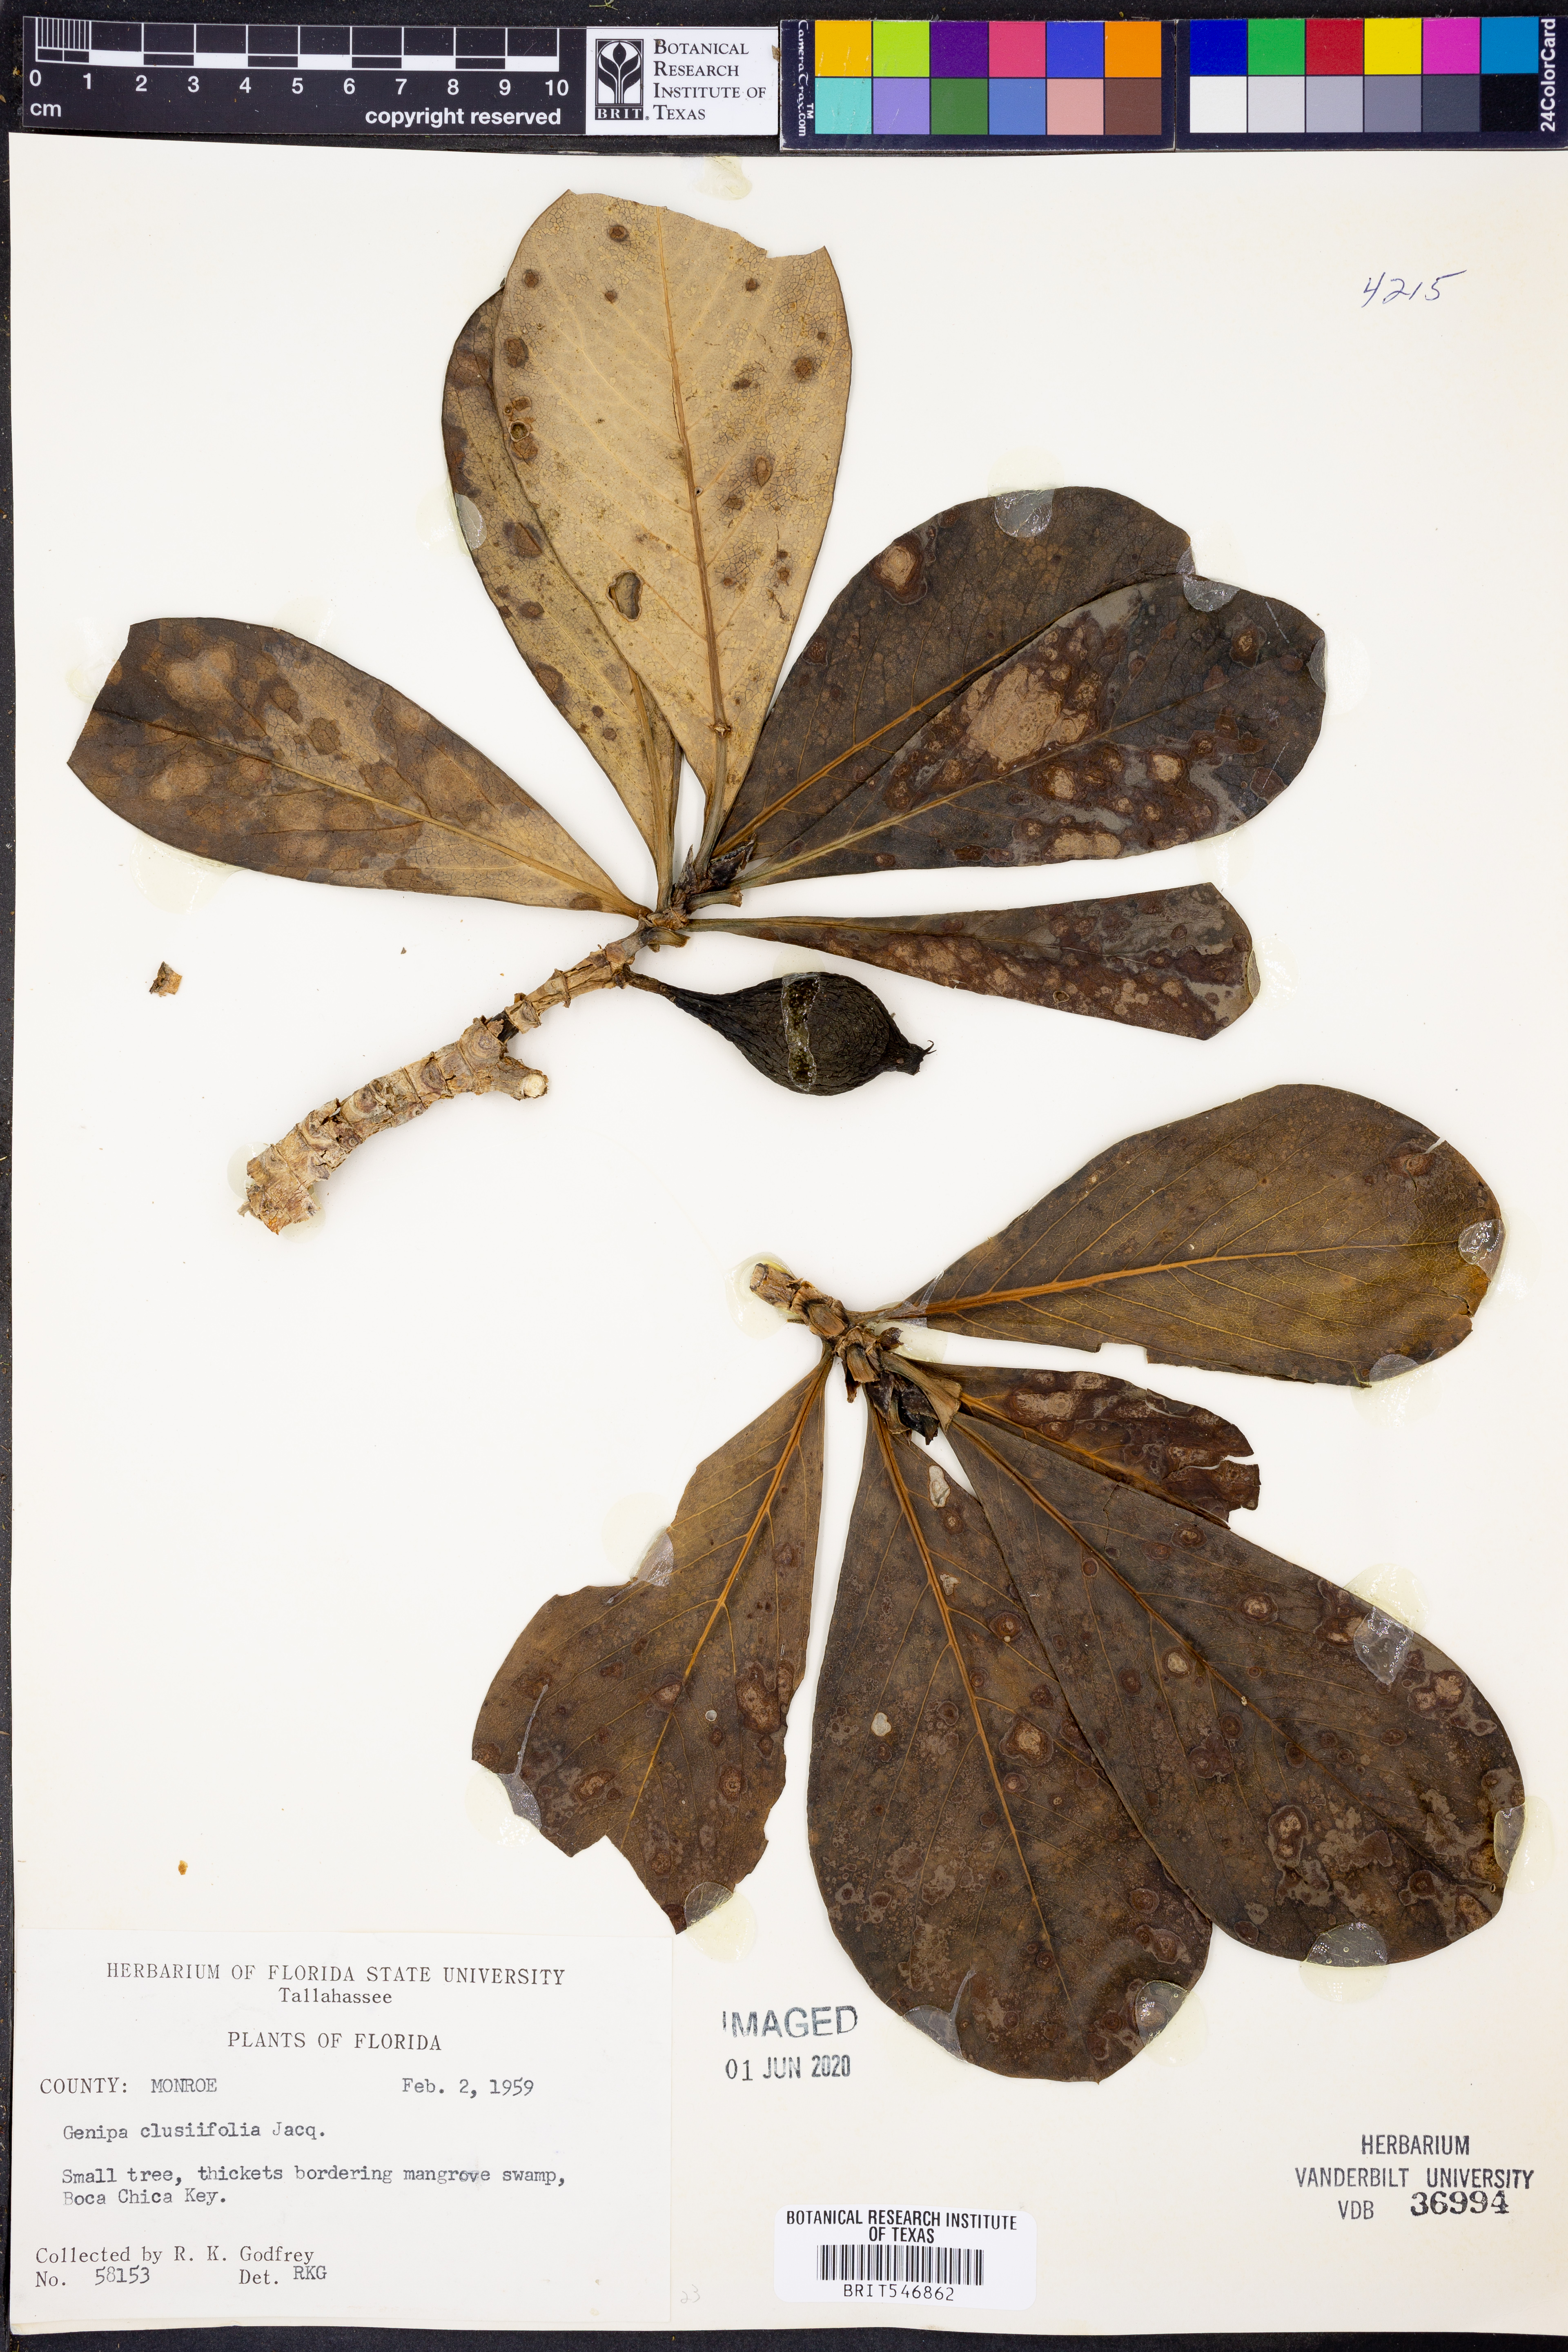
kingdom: Plantae
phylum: Tracheophyta
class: Magnoliopsida
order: Gentianales
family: Rubiaceae
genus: Casasia
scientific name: Casasia clusiifolia
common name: Seven-year apple
